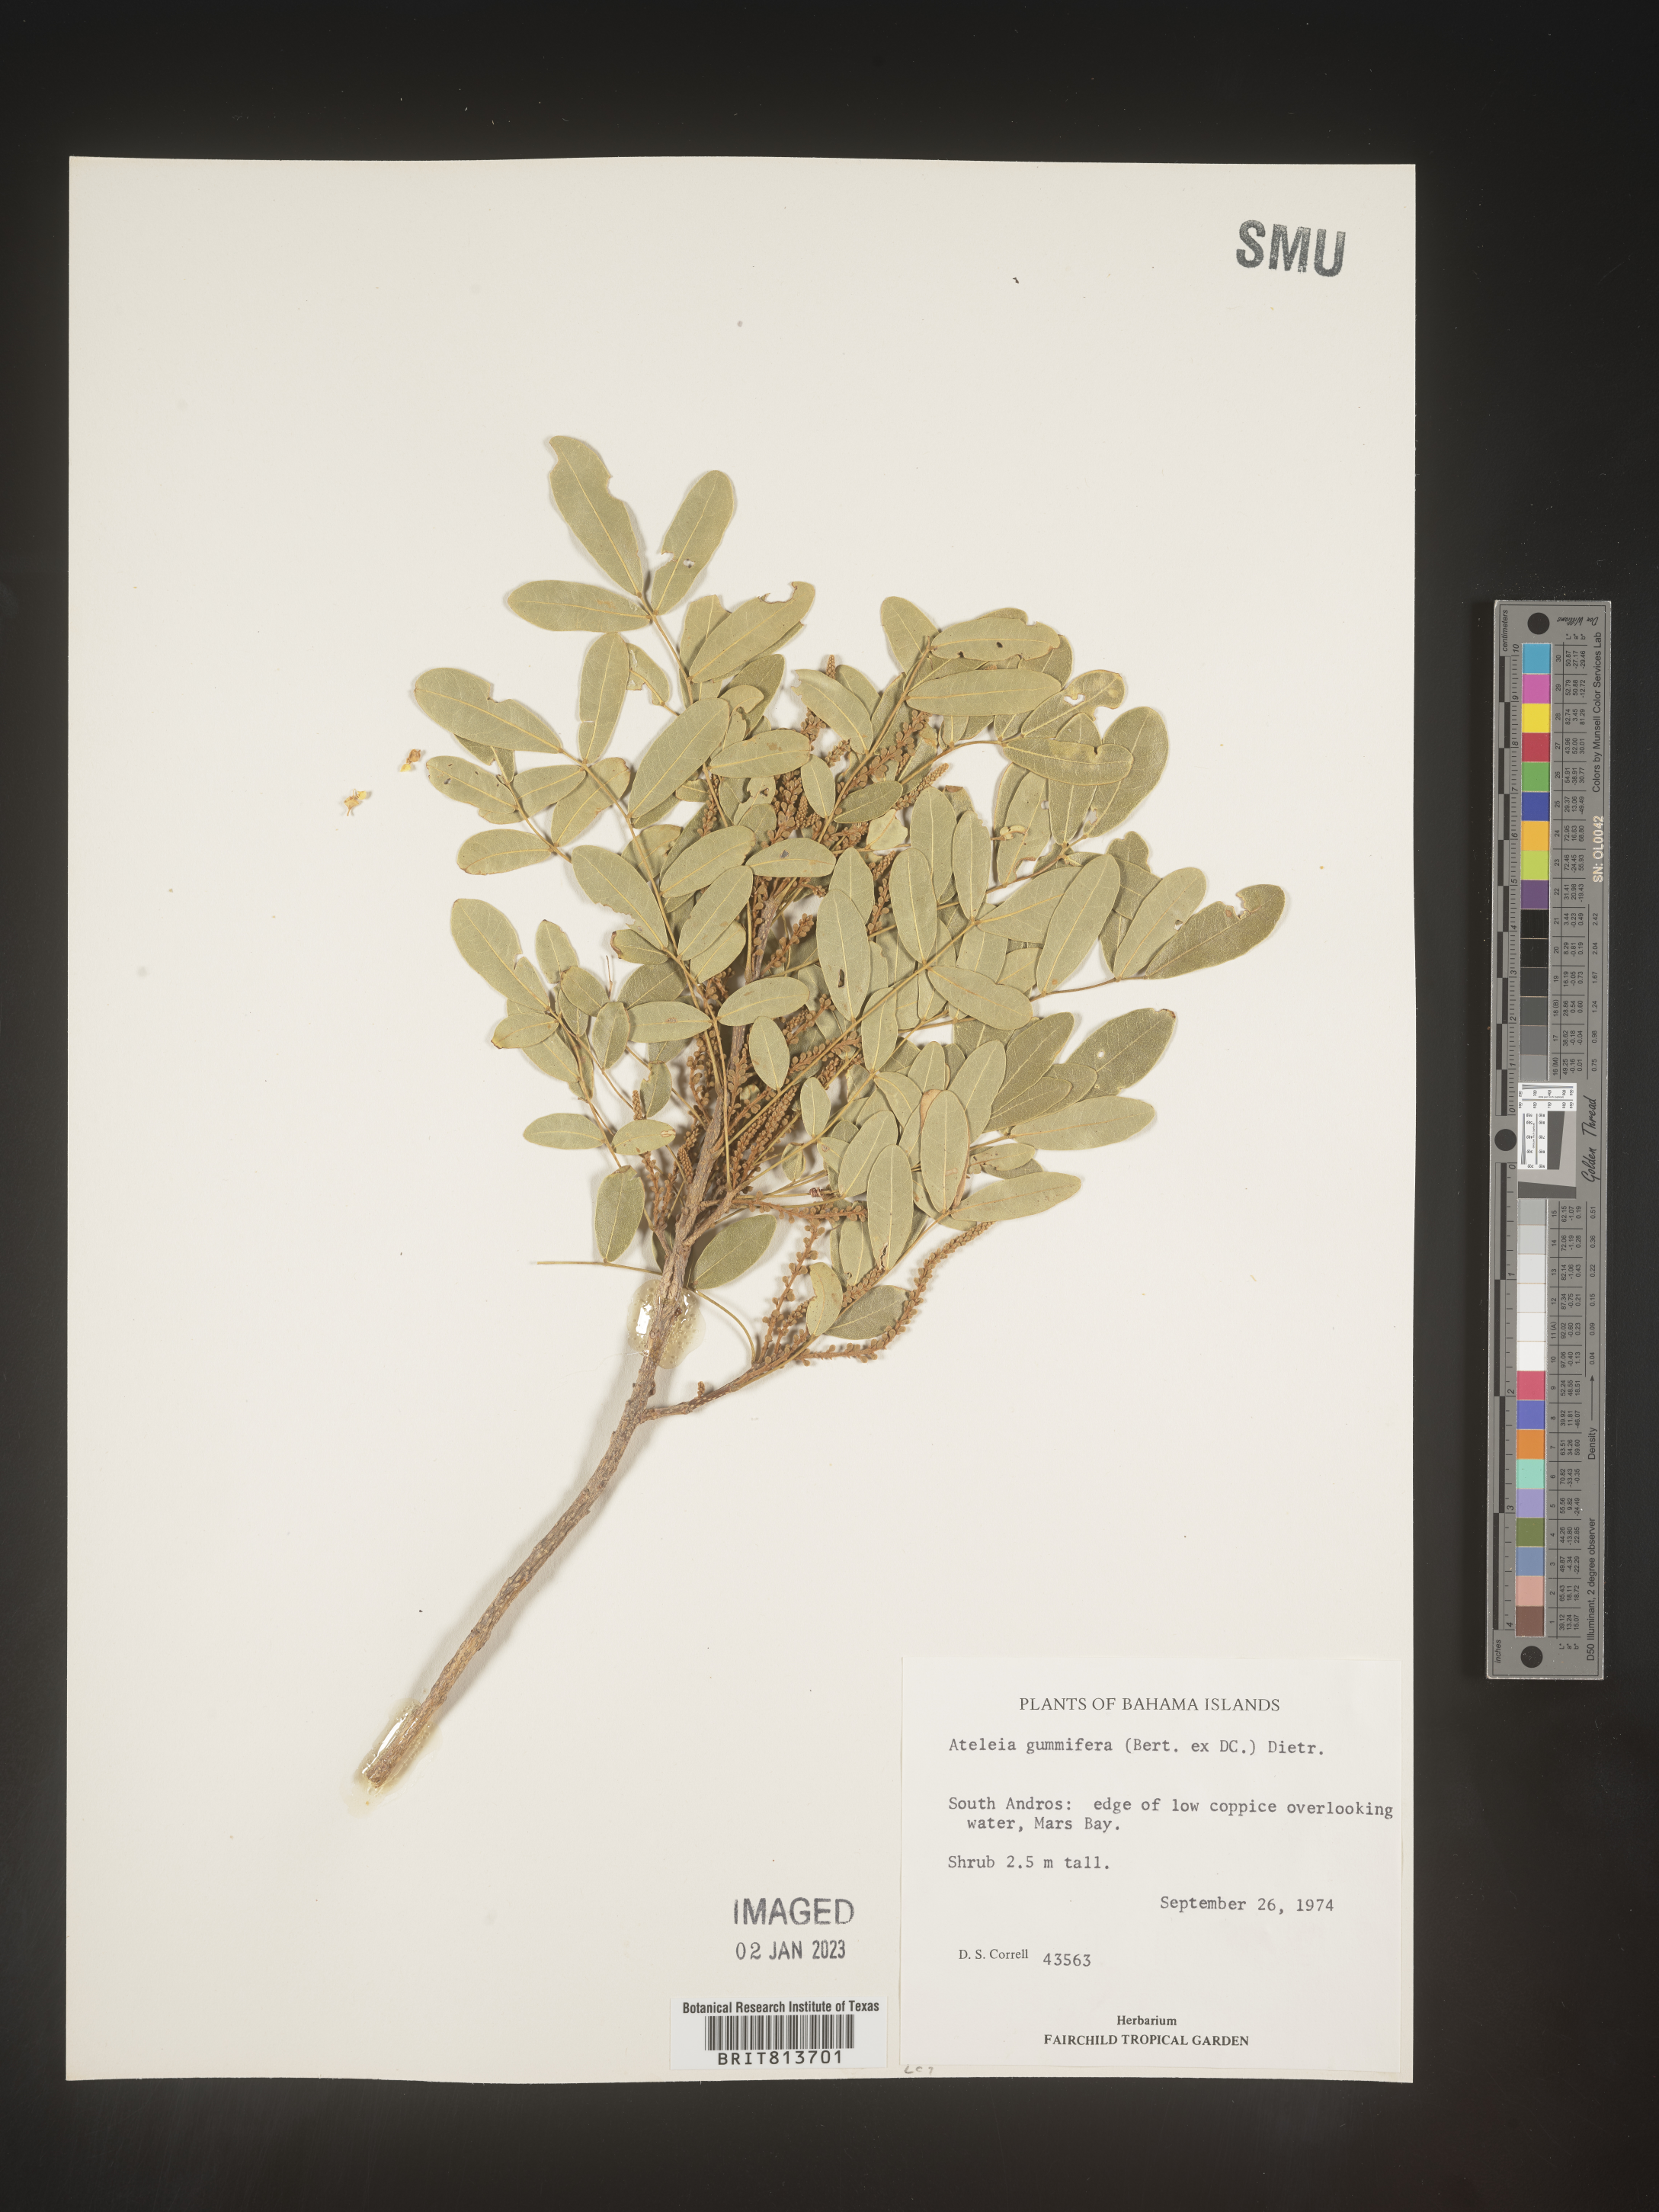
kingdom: Plantae
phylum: Tracheophyta
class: Magnoliopsida
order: Fabales
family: Fabaceae
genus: Ateleia
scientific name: Ateleia
